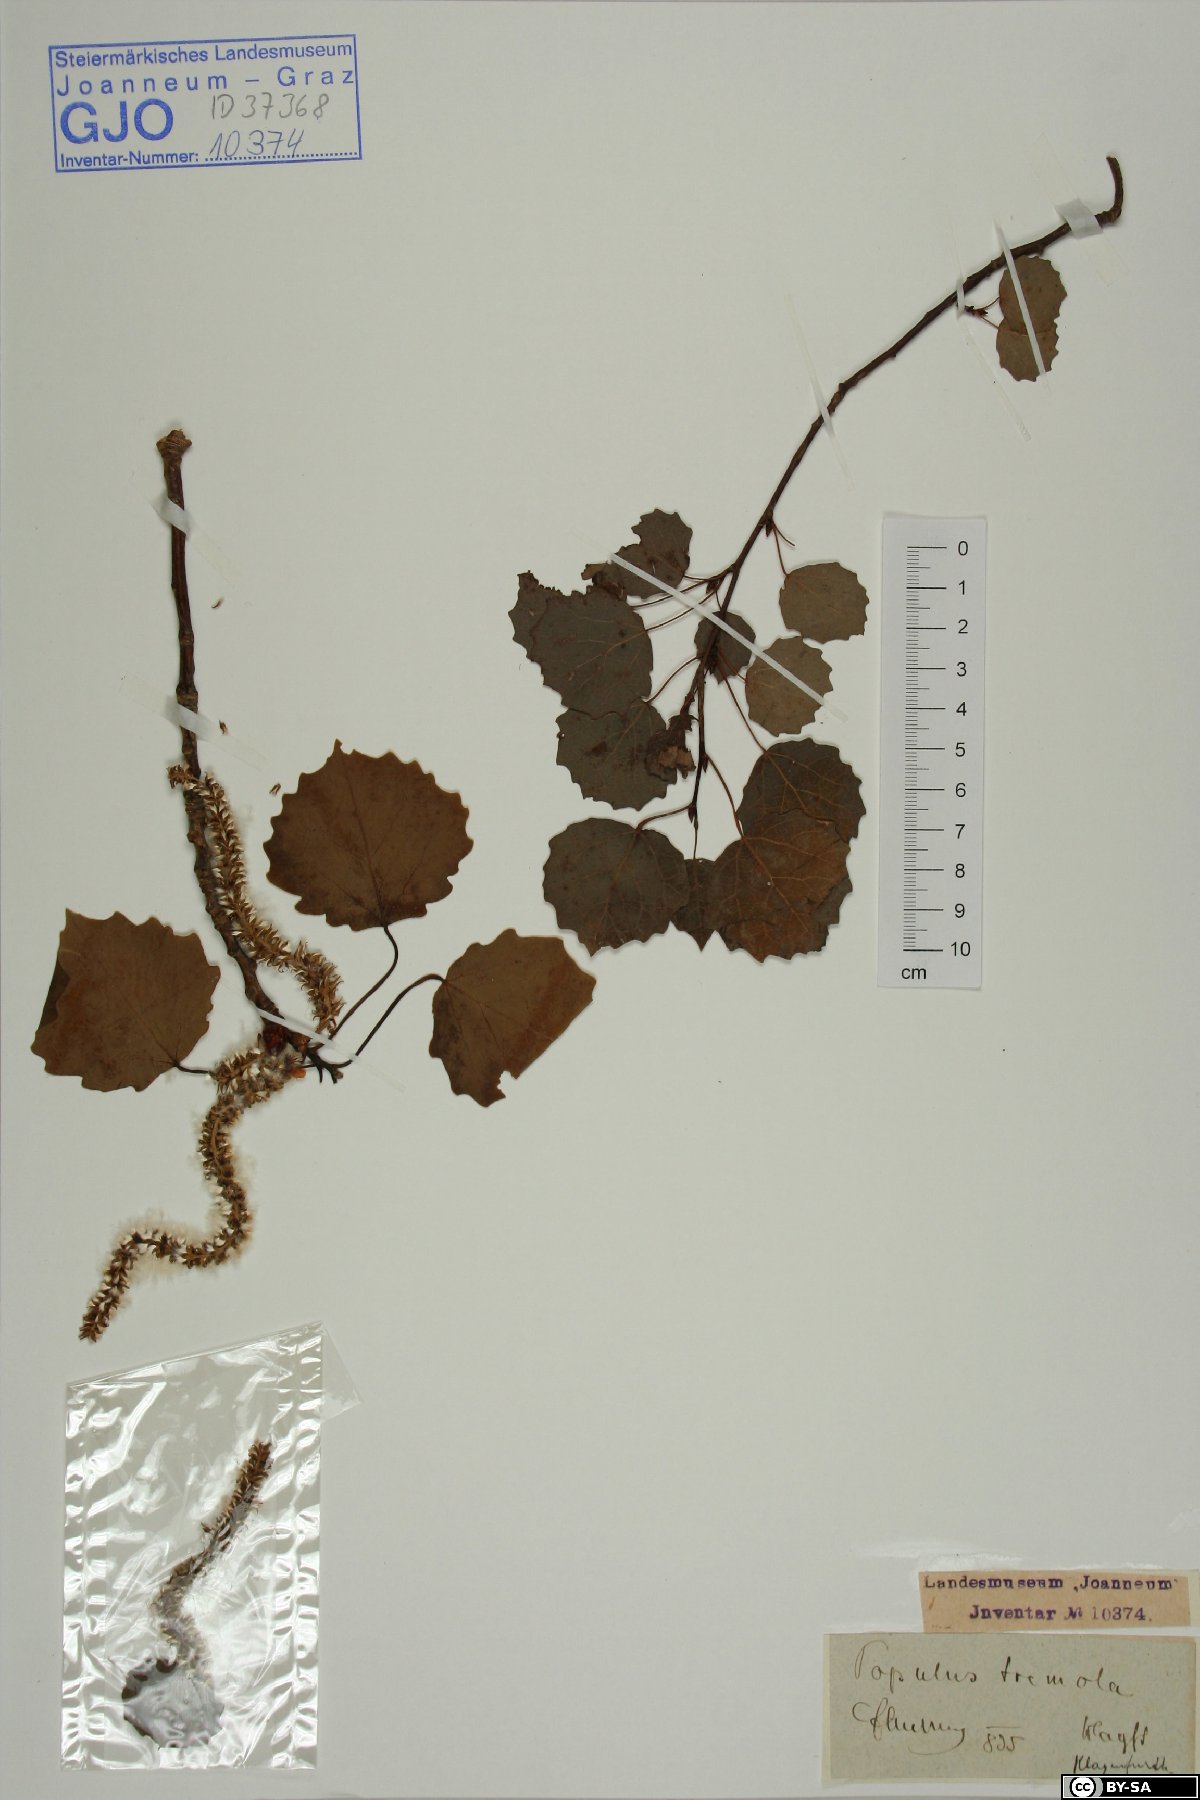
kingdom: Plantae
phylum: Tracheophyta
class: Magnoliopsida
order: Malpighiales
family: Salicaceae
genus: Populus
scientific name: Populus tremula
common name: European aspen
